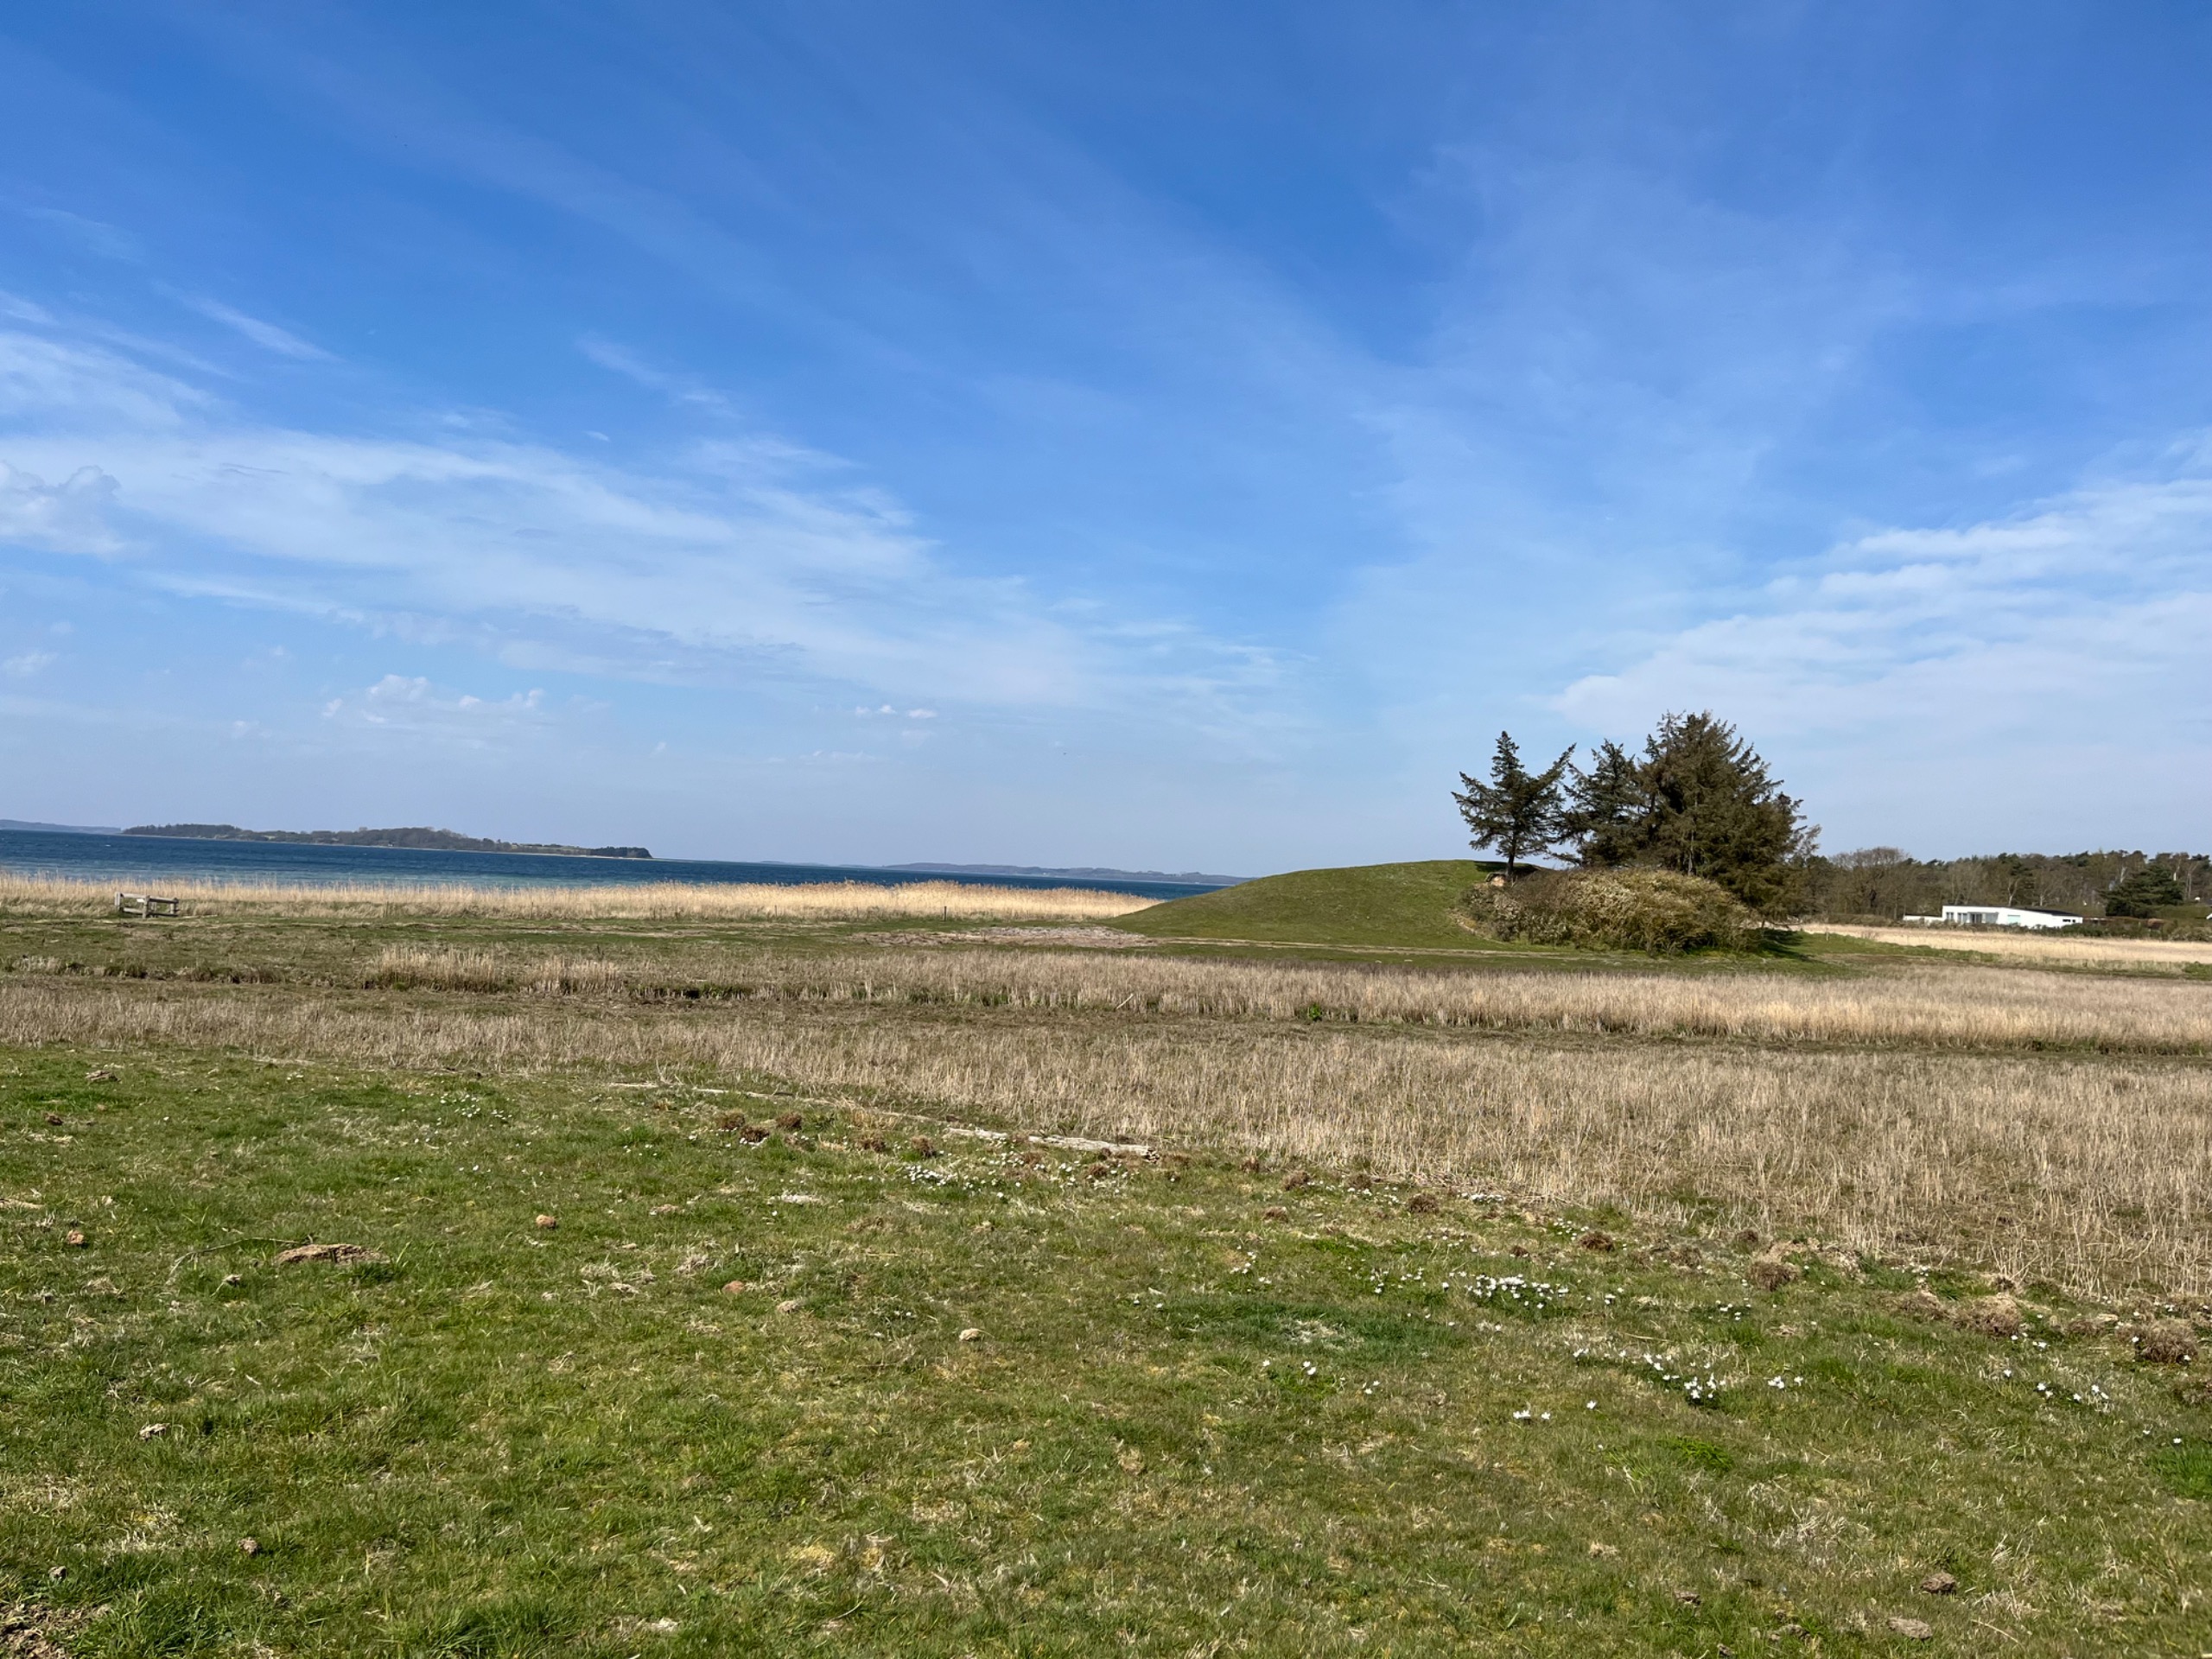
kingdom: Plantae
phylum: Tracheophyta
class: Magnoliopsida
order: Ranunculales
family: Ranunculaceae
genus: Pulsatilla
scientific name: Pulsatilla pratensis
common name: Nikkende kobjælde
